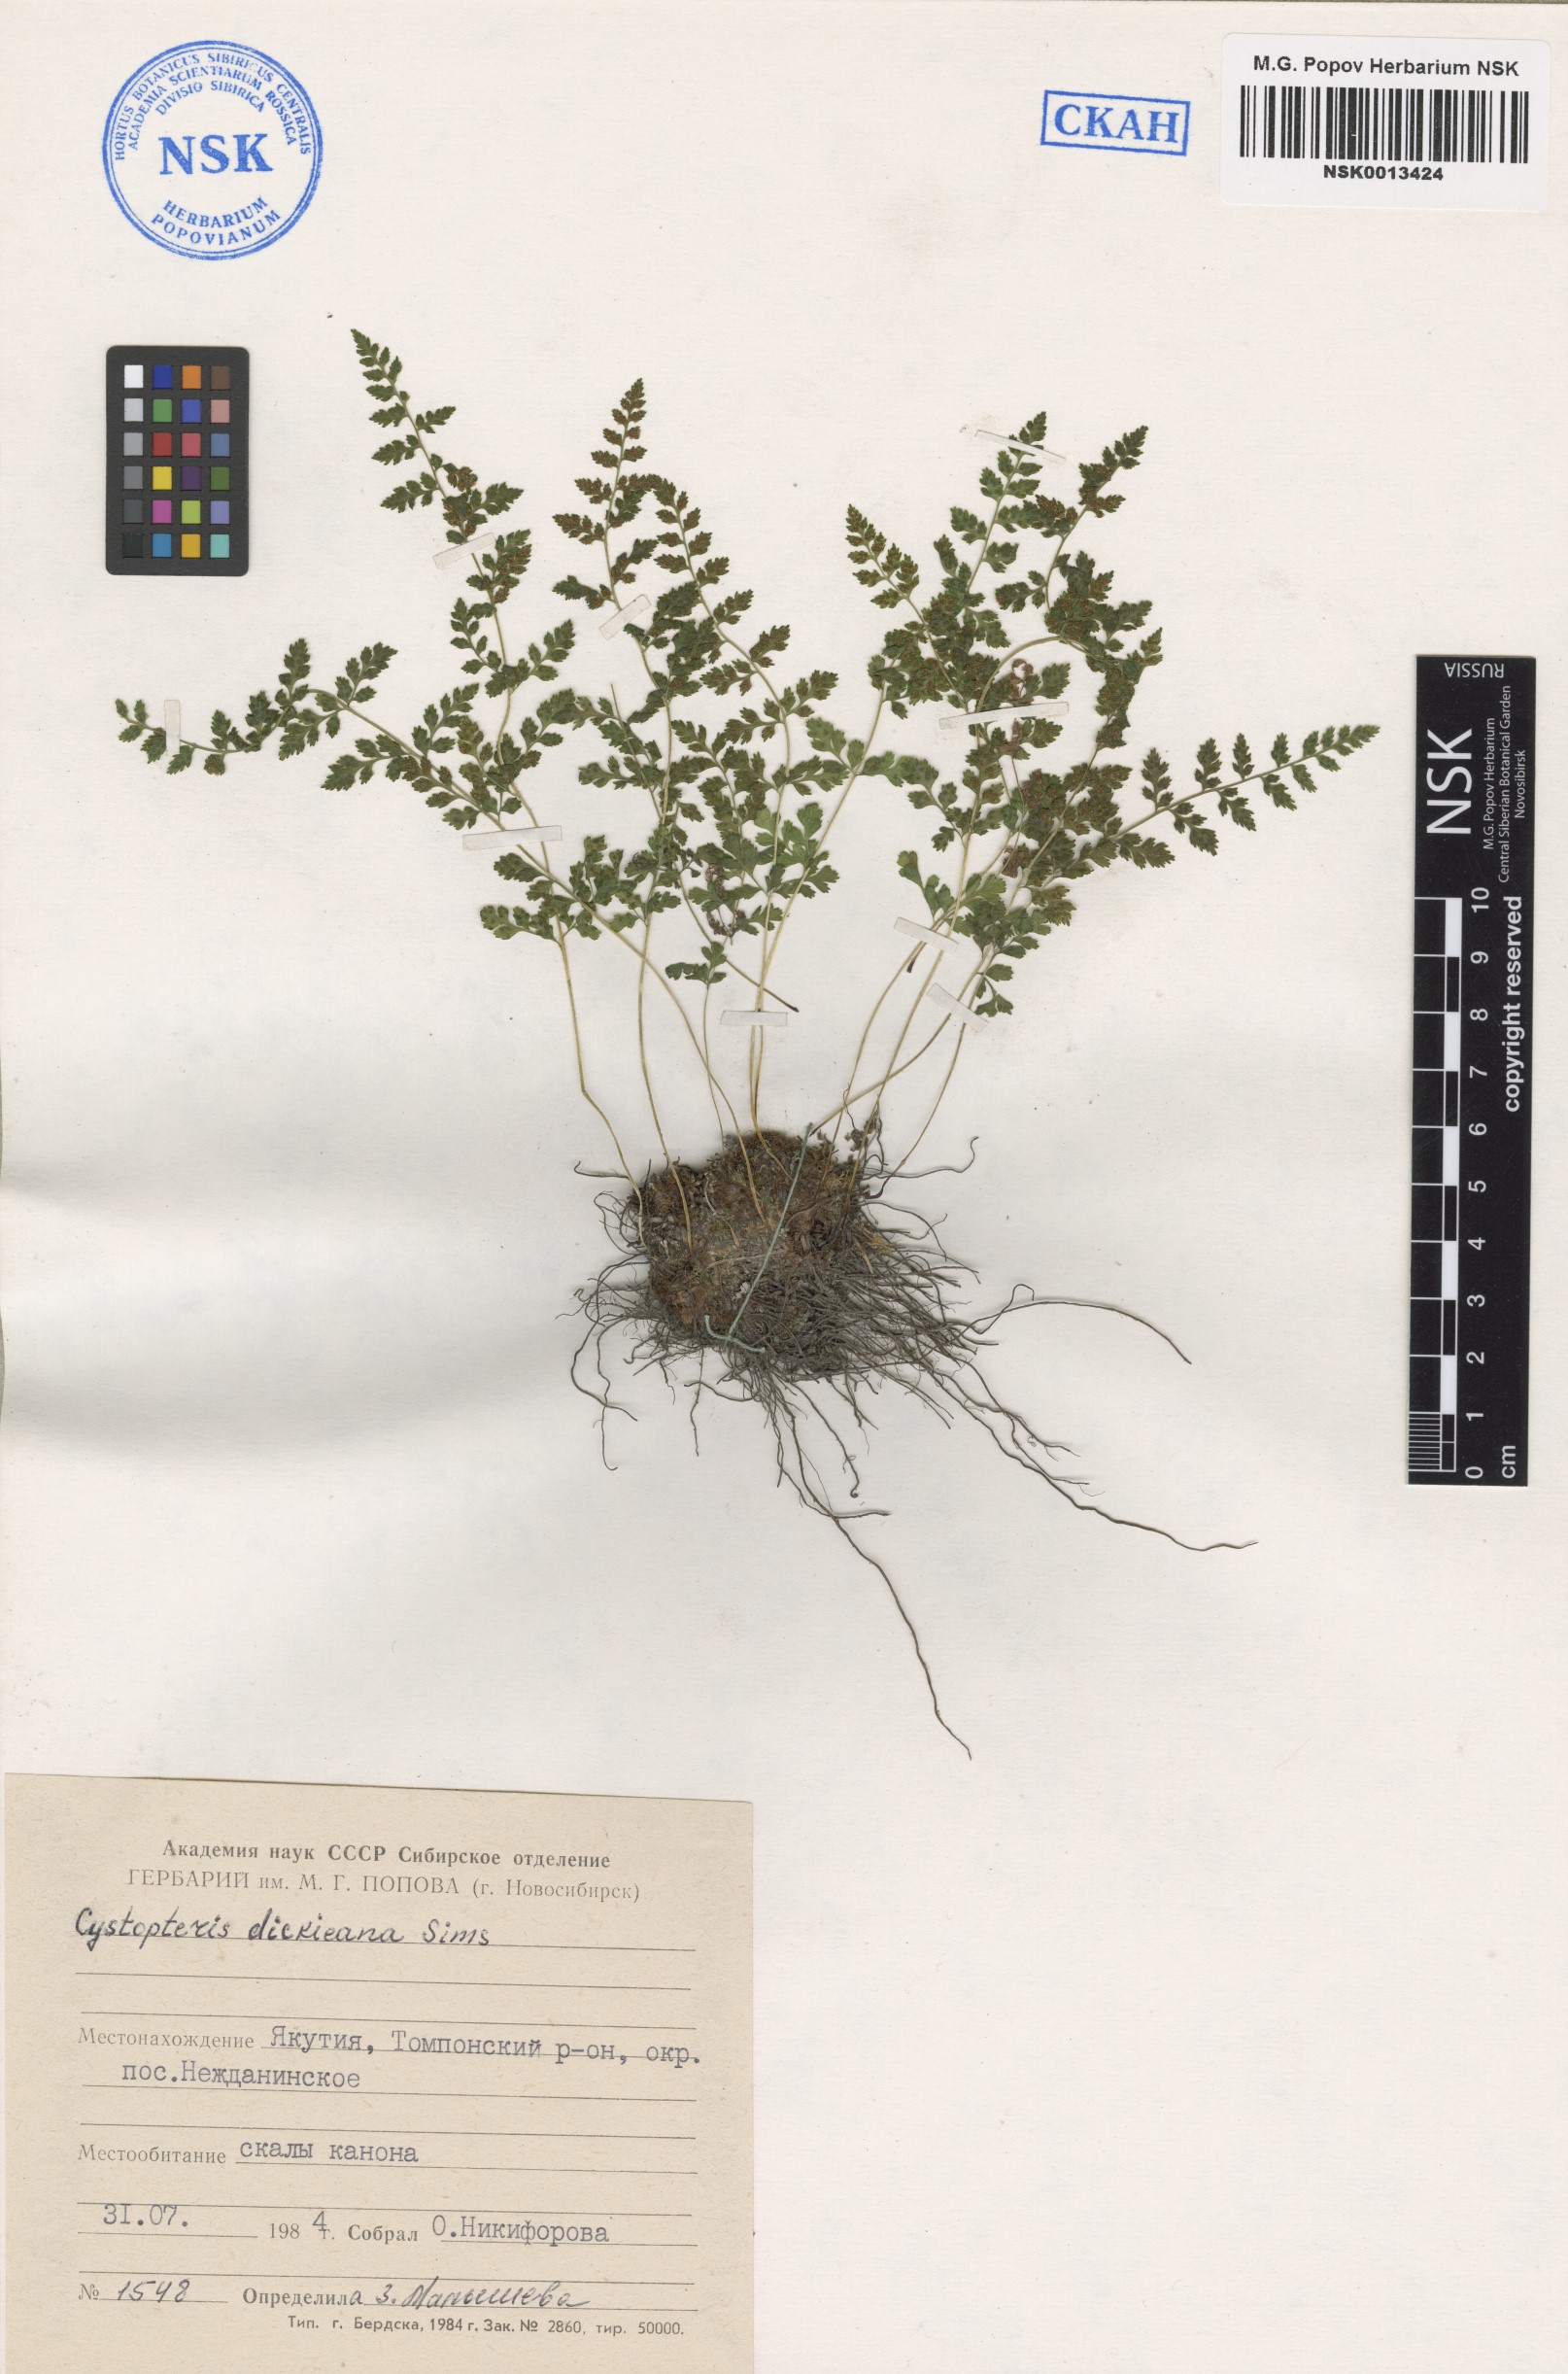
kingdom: Plantae
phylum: Tracheophyta
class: Polypodiopsida
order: Polypodiales
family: Cystopteridaceae
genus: Cystopteris
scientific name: Cystopteris dickieana
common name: Dickie's bladder-fern
